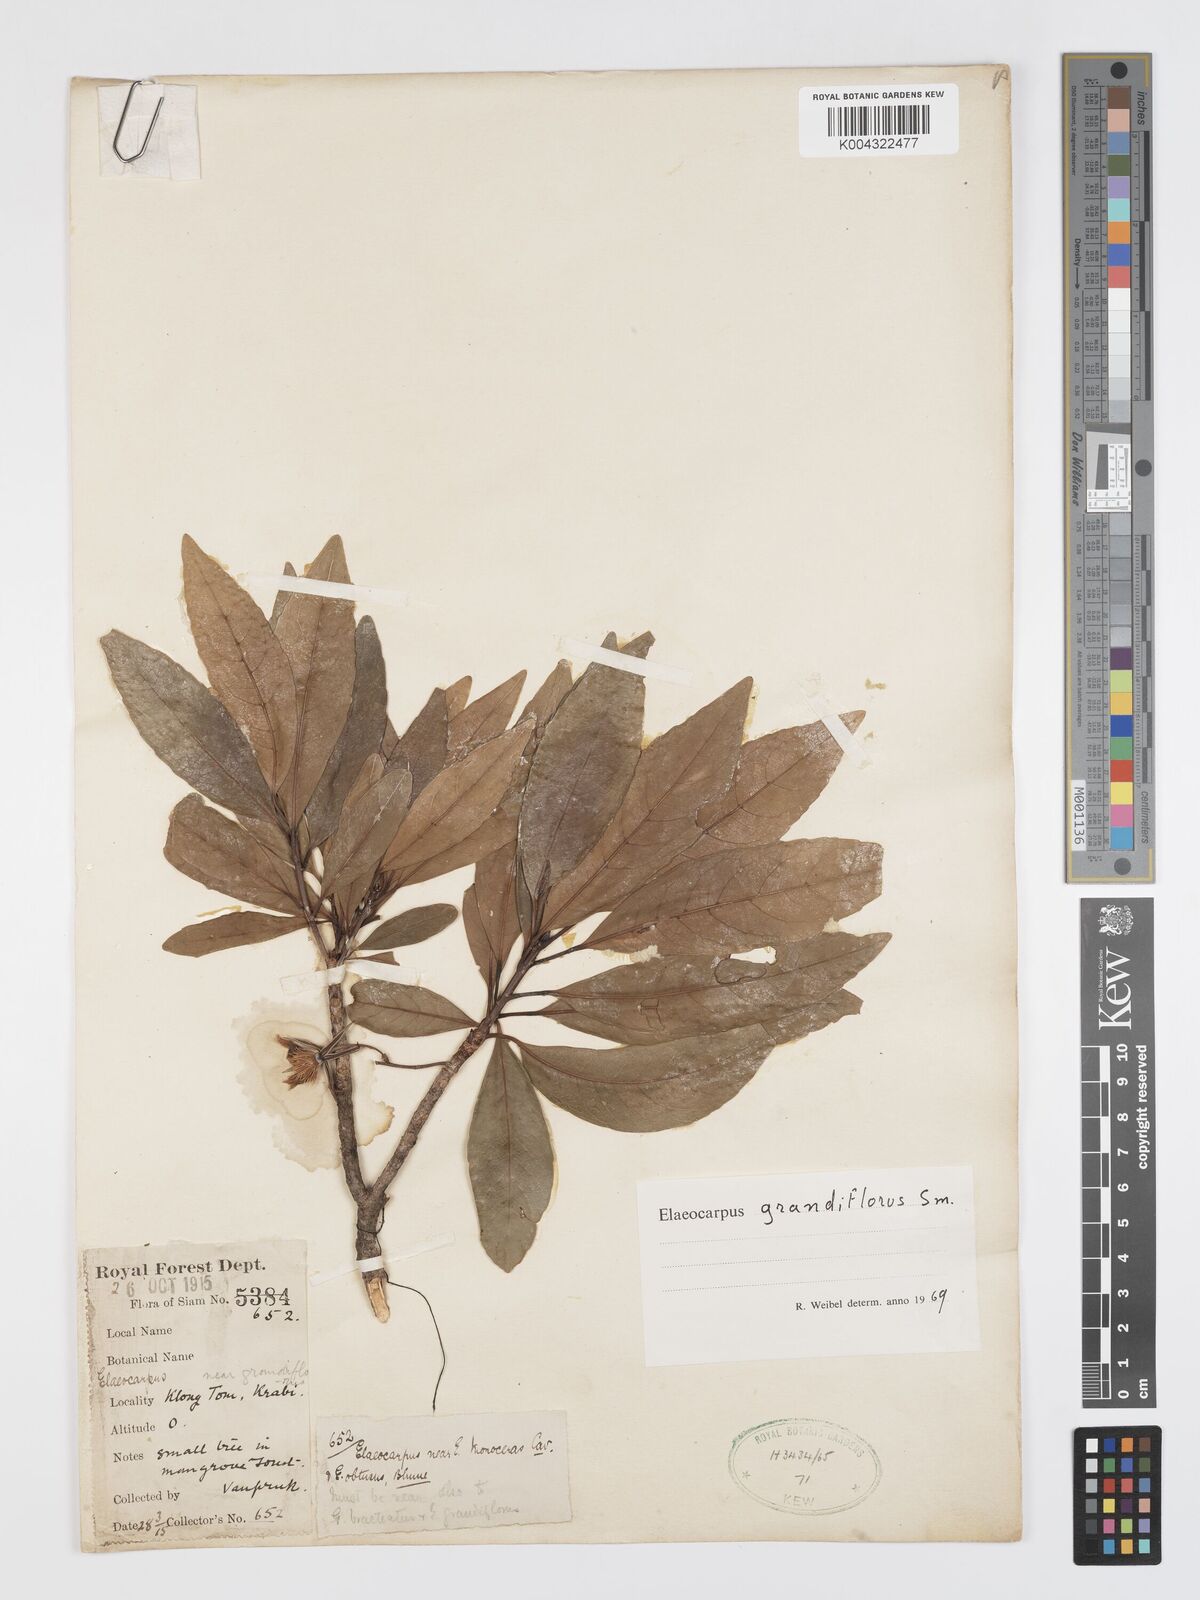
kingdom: Plantae
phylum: Tracheophyta
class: Magnoliopsida
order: Oxalidales
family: Elaeocarpaceae
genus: Elaeocarpus
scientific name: Elaeocarpus grandiflorus
